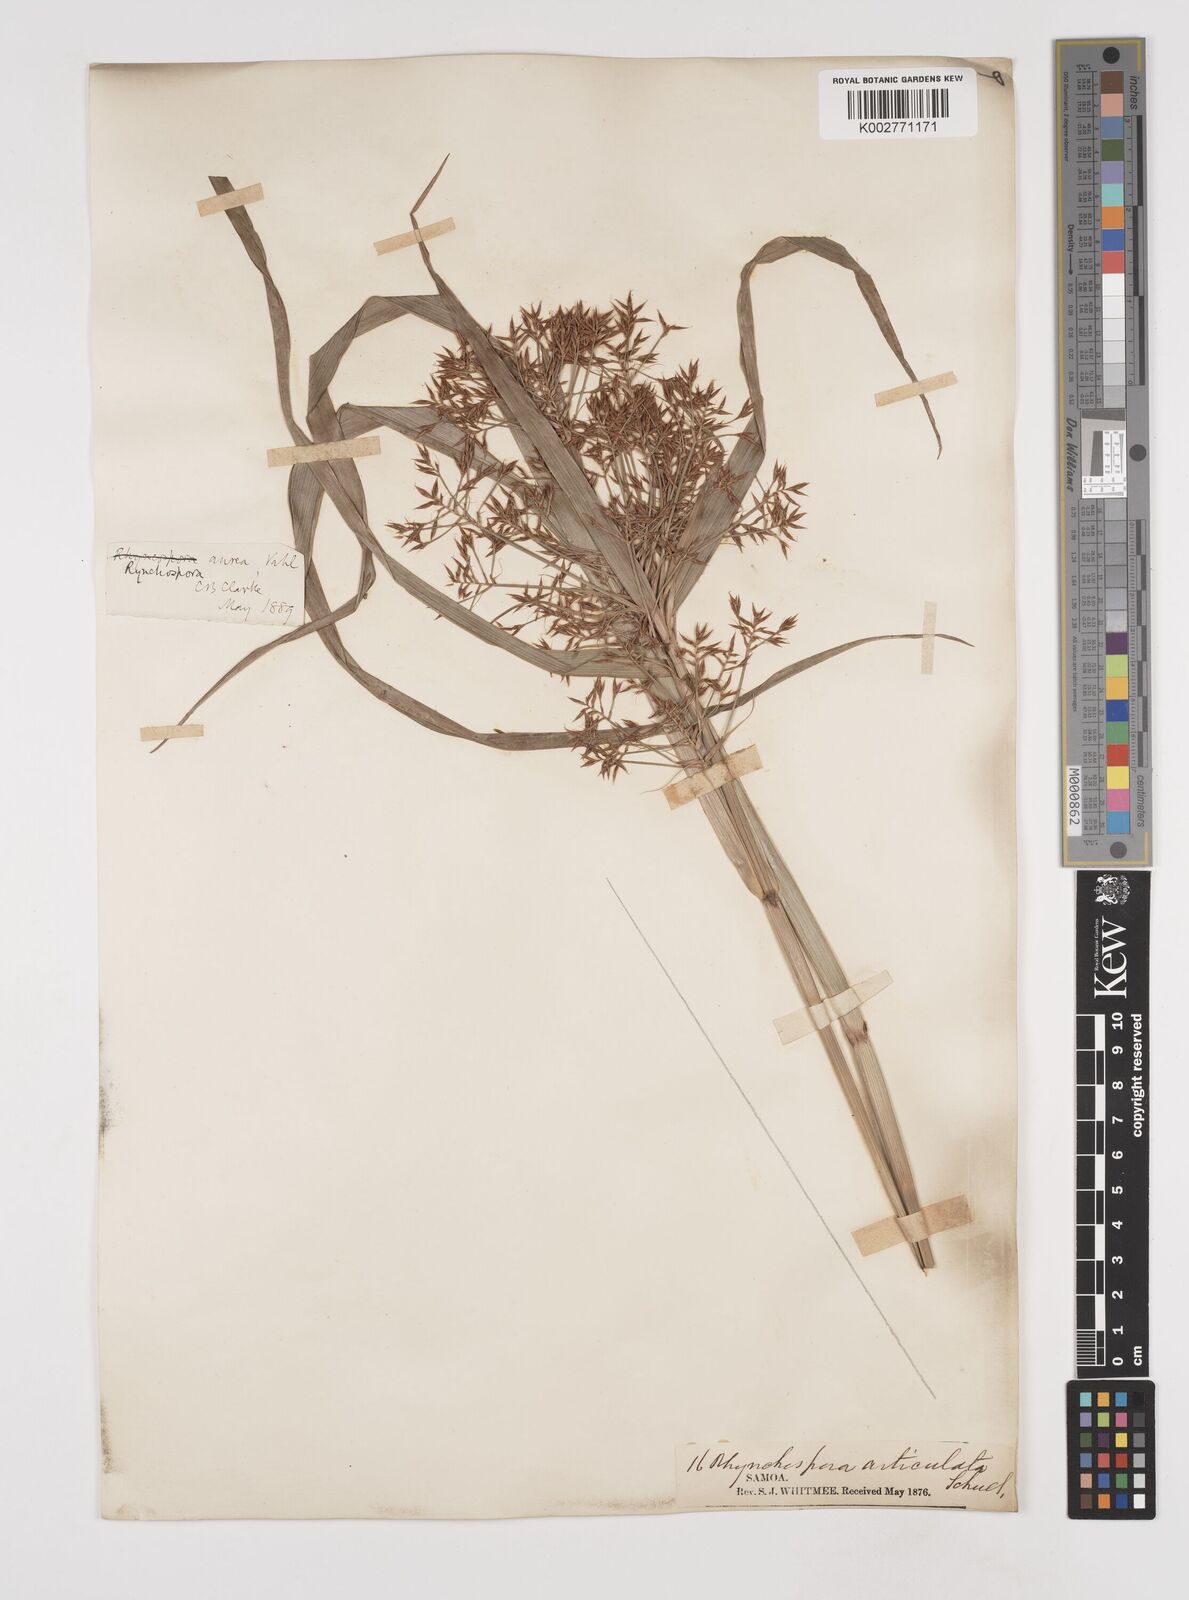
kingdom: Plantae
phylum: Tracheophyta
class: Liliopsida
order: Poales
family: Cyperaceae
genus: Rhynchospora
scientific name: Rhynchospora corymbosa
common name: Golden beak sedge
